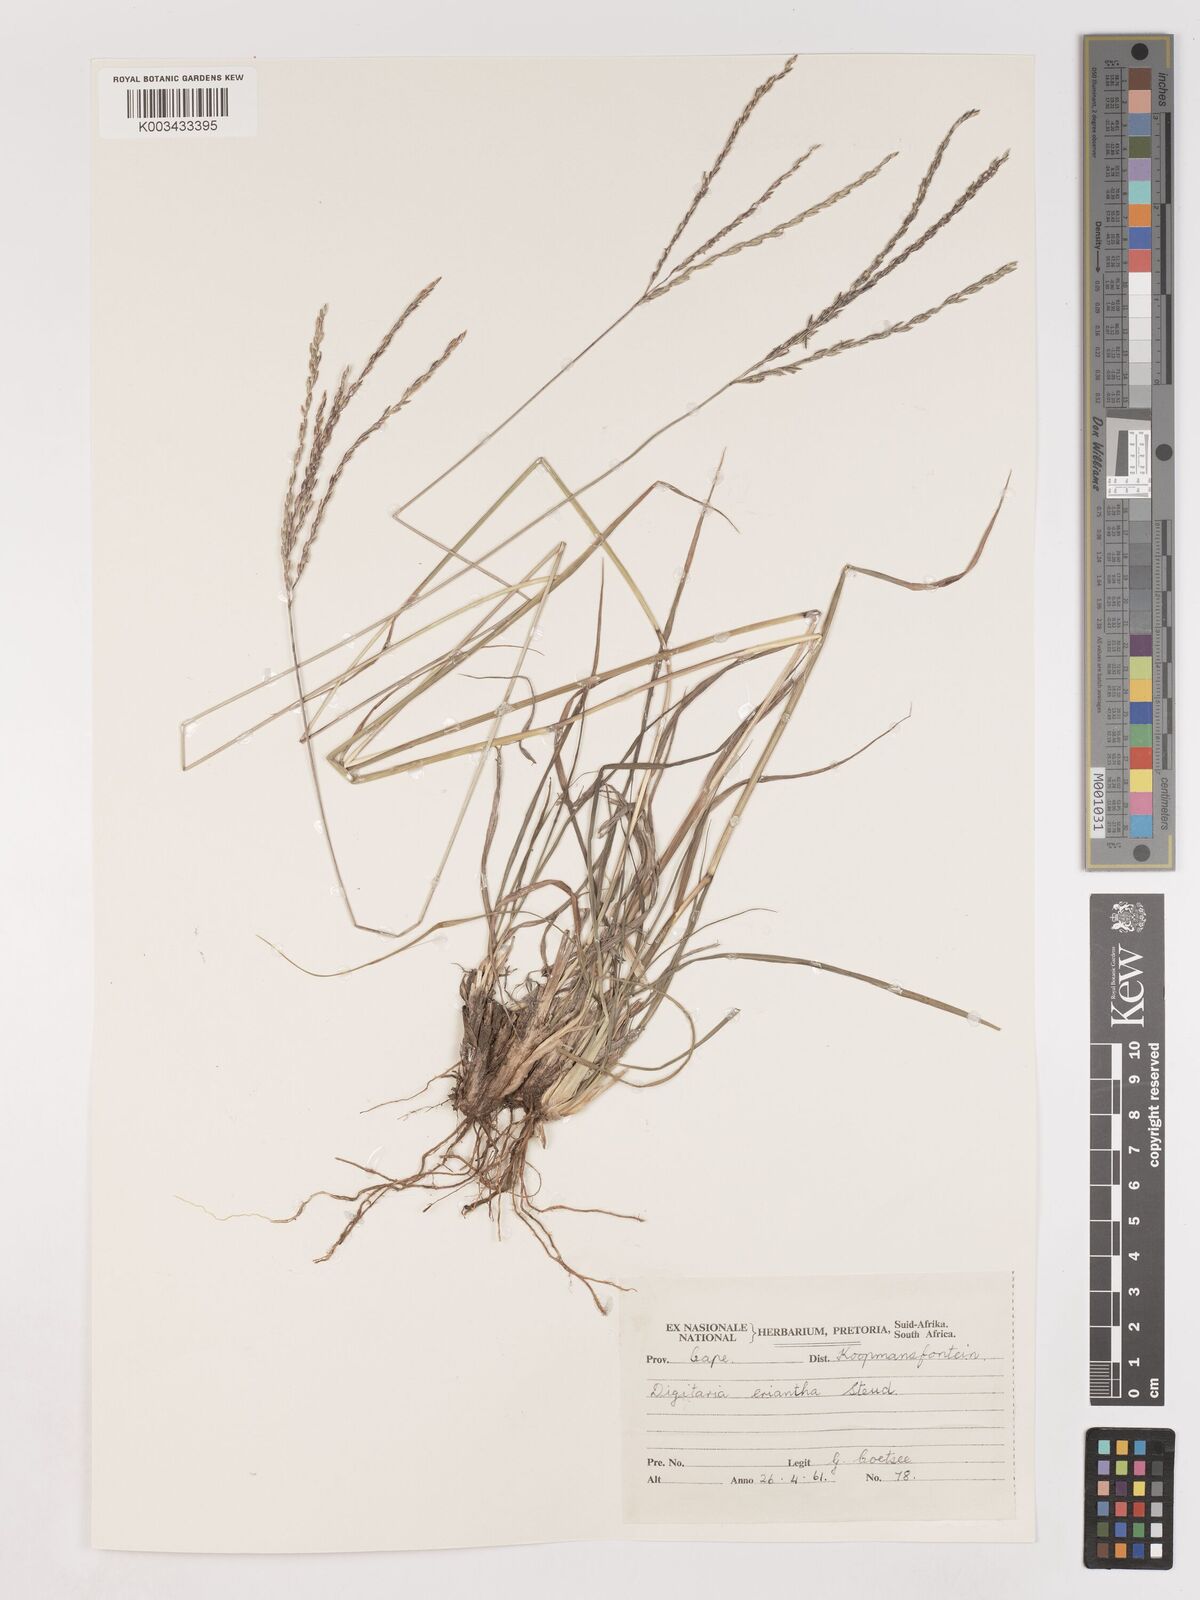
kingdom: Plantae
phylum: Tracheophyta
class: Liliopsida
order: Poales
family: Poaceae
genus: Digitaria
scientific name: Digitaria eriantha
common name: Digitgrass
